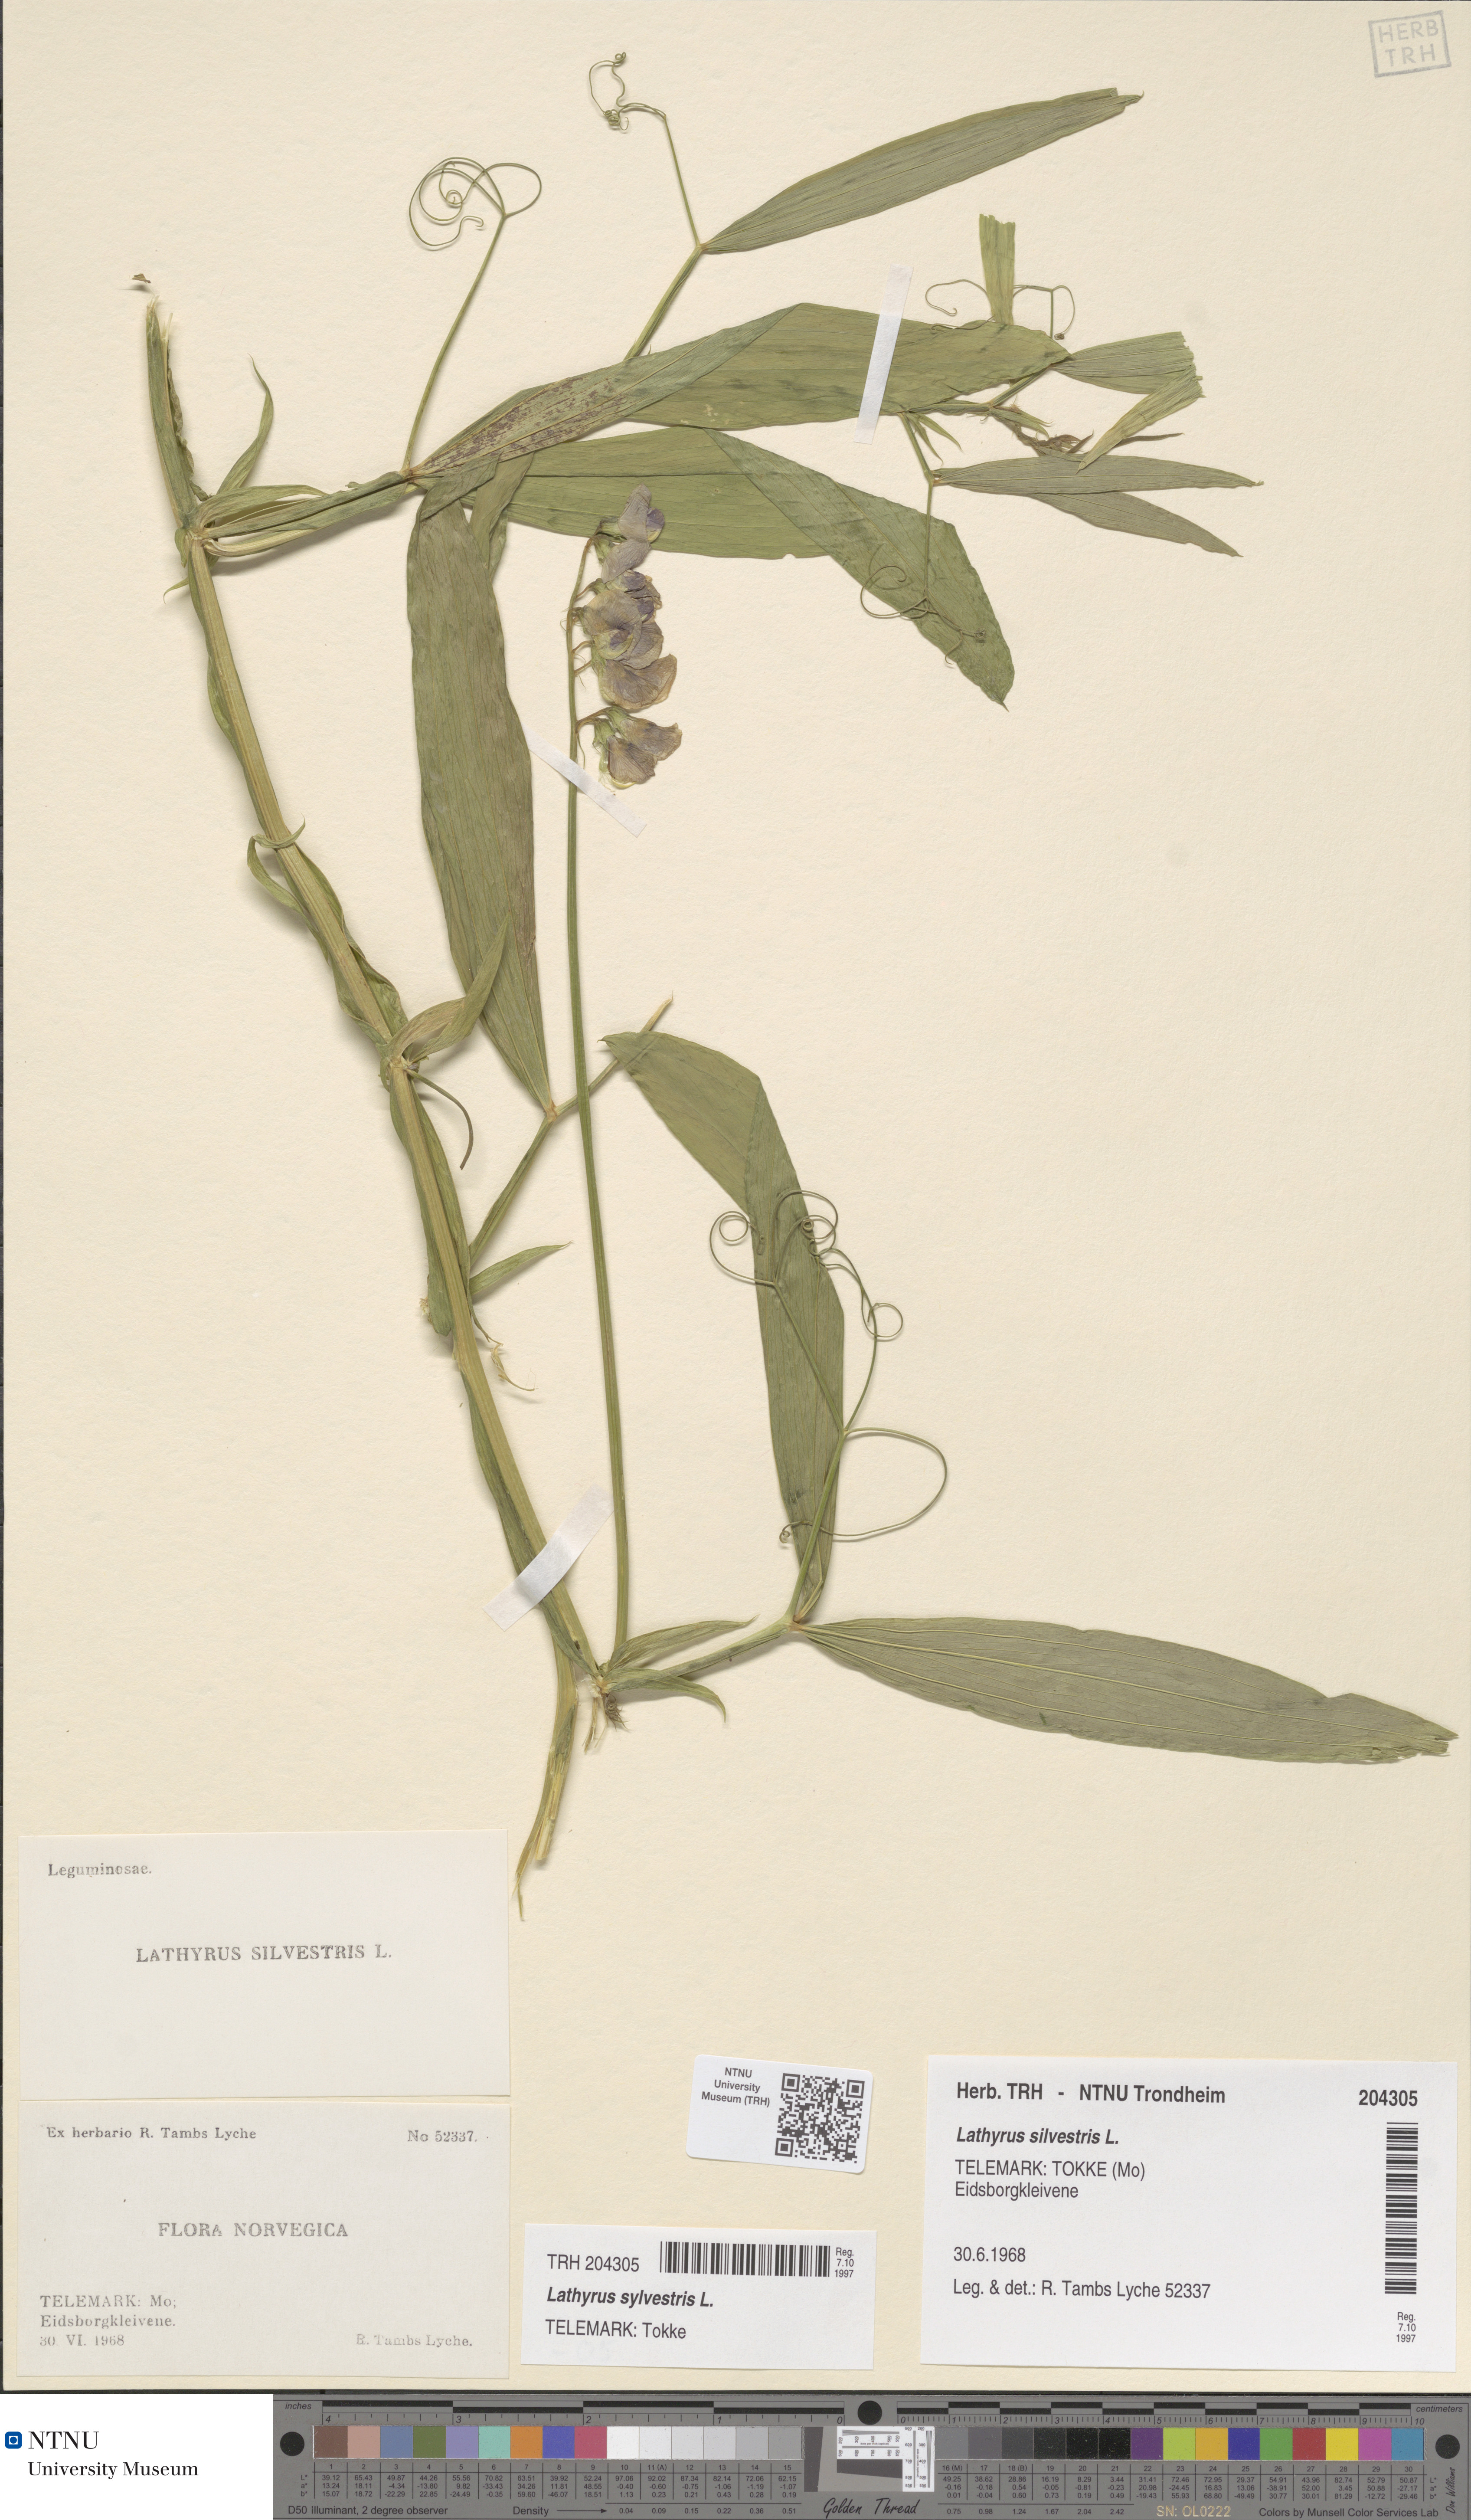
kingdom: Plantae
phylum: Tracheophyta
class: Magnoliopsida
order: Fabales
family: Fabaceae
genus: Lathyrus
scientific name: Lathyrus sylvestris
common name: Flat pea
